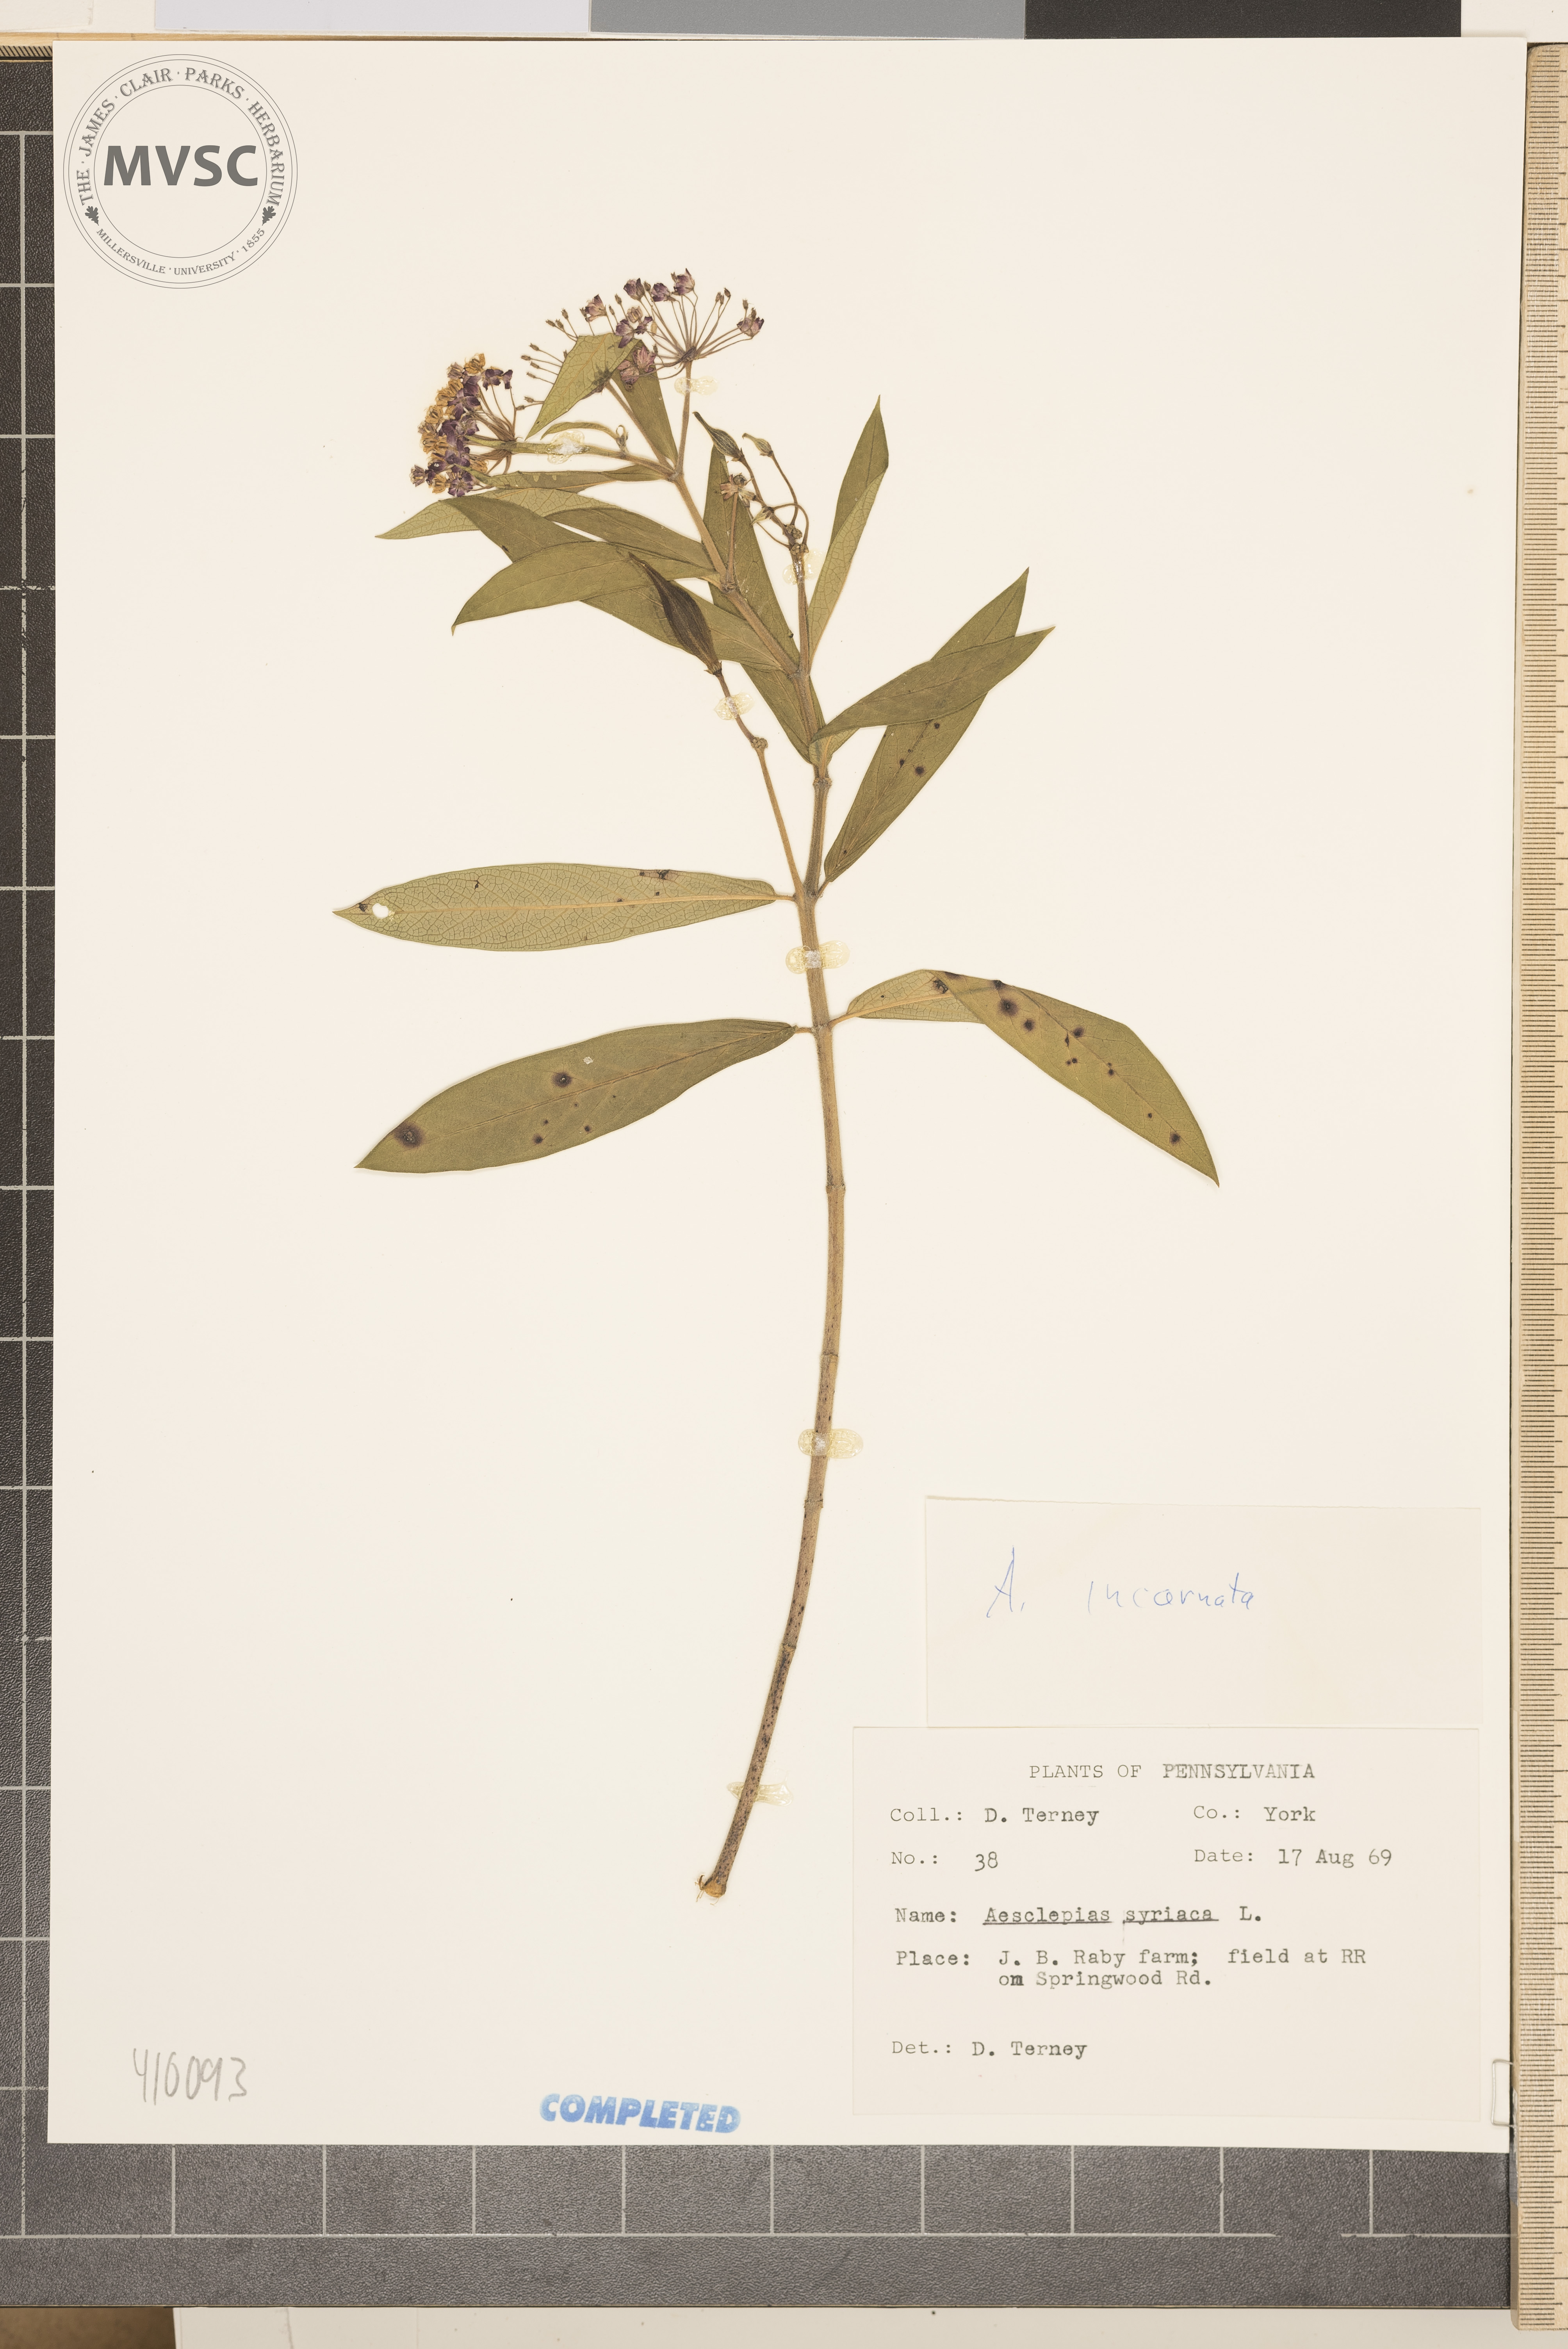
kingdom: Plantae
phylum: Tracheophyta
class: Magnoliopsida
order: Gentianales
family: Apocynaceae
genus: Asclepias
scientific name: Asclepias incarnata
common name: Swamp milkweed
